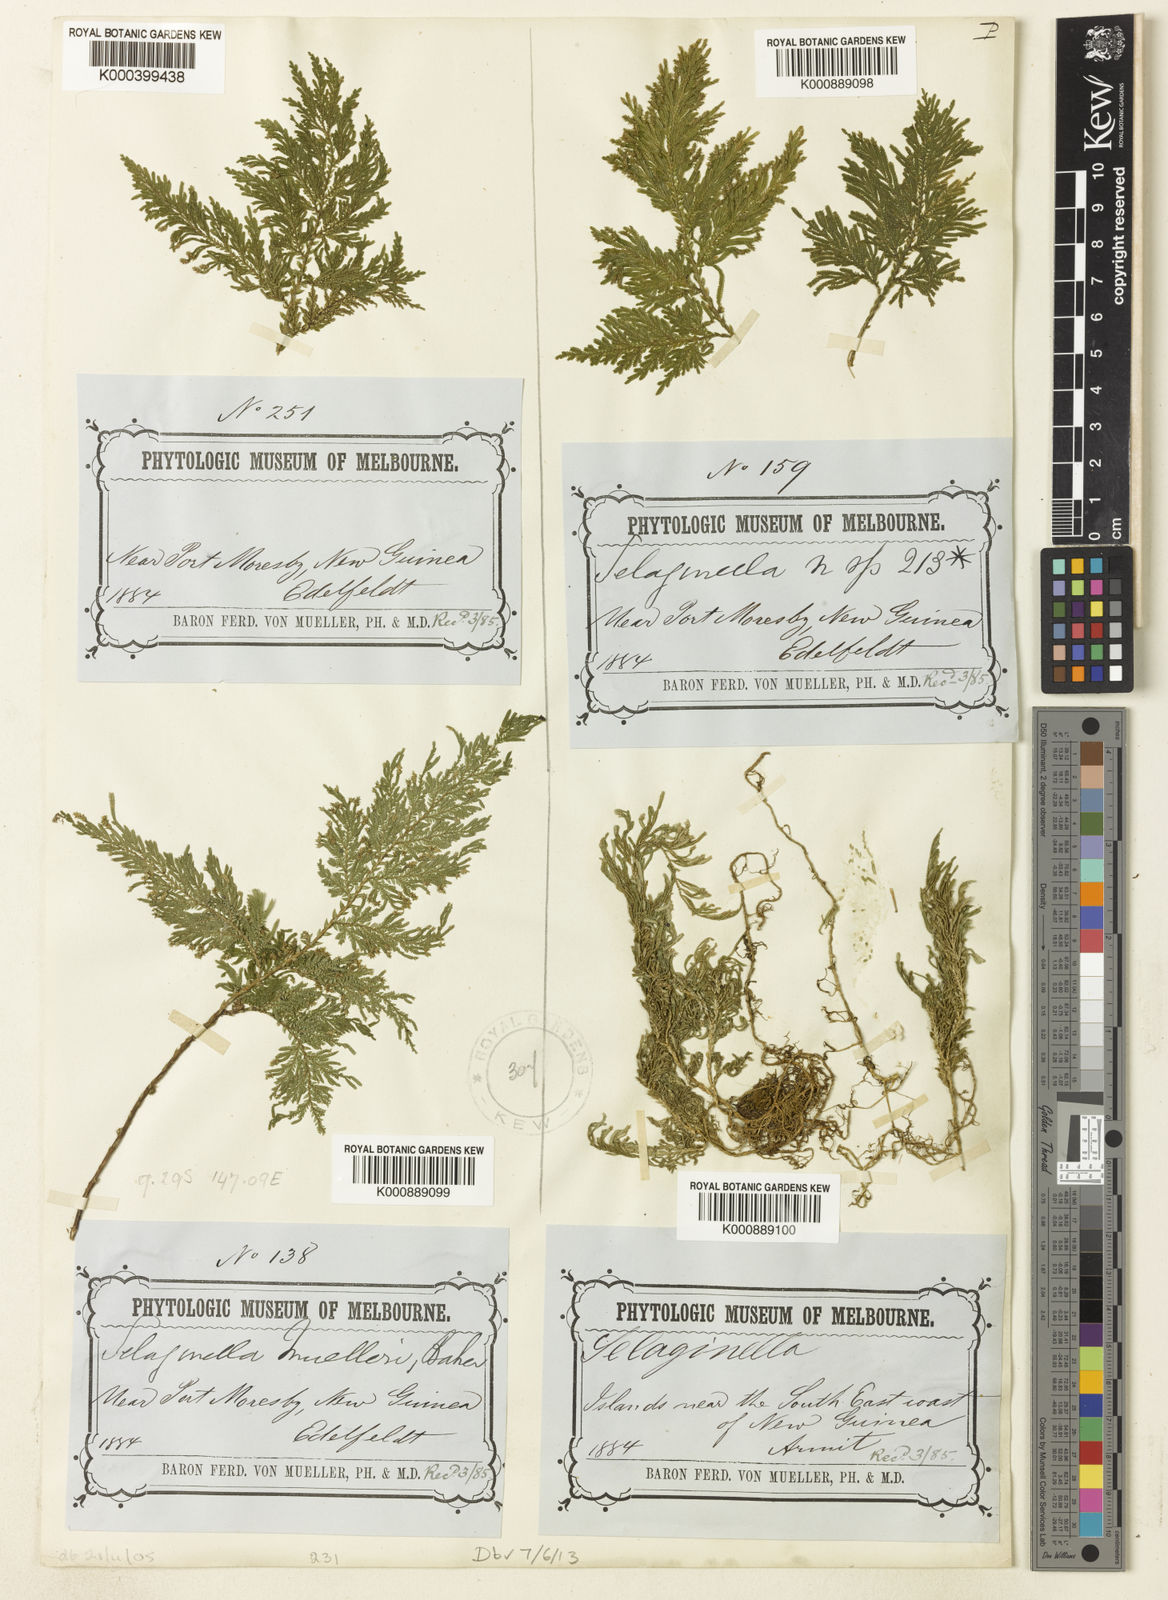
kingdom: Plantae
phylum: Tracheophyta
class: Lycopodiopsida
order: Selaginellales
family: Selaginellaceae
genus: Selaginella
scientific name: Selaginella muelleri
